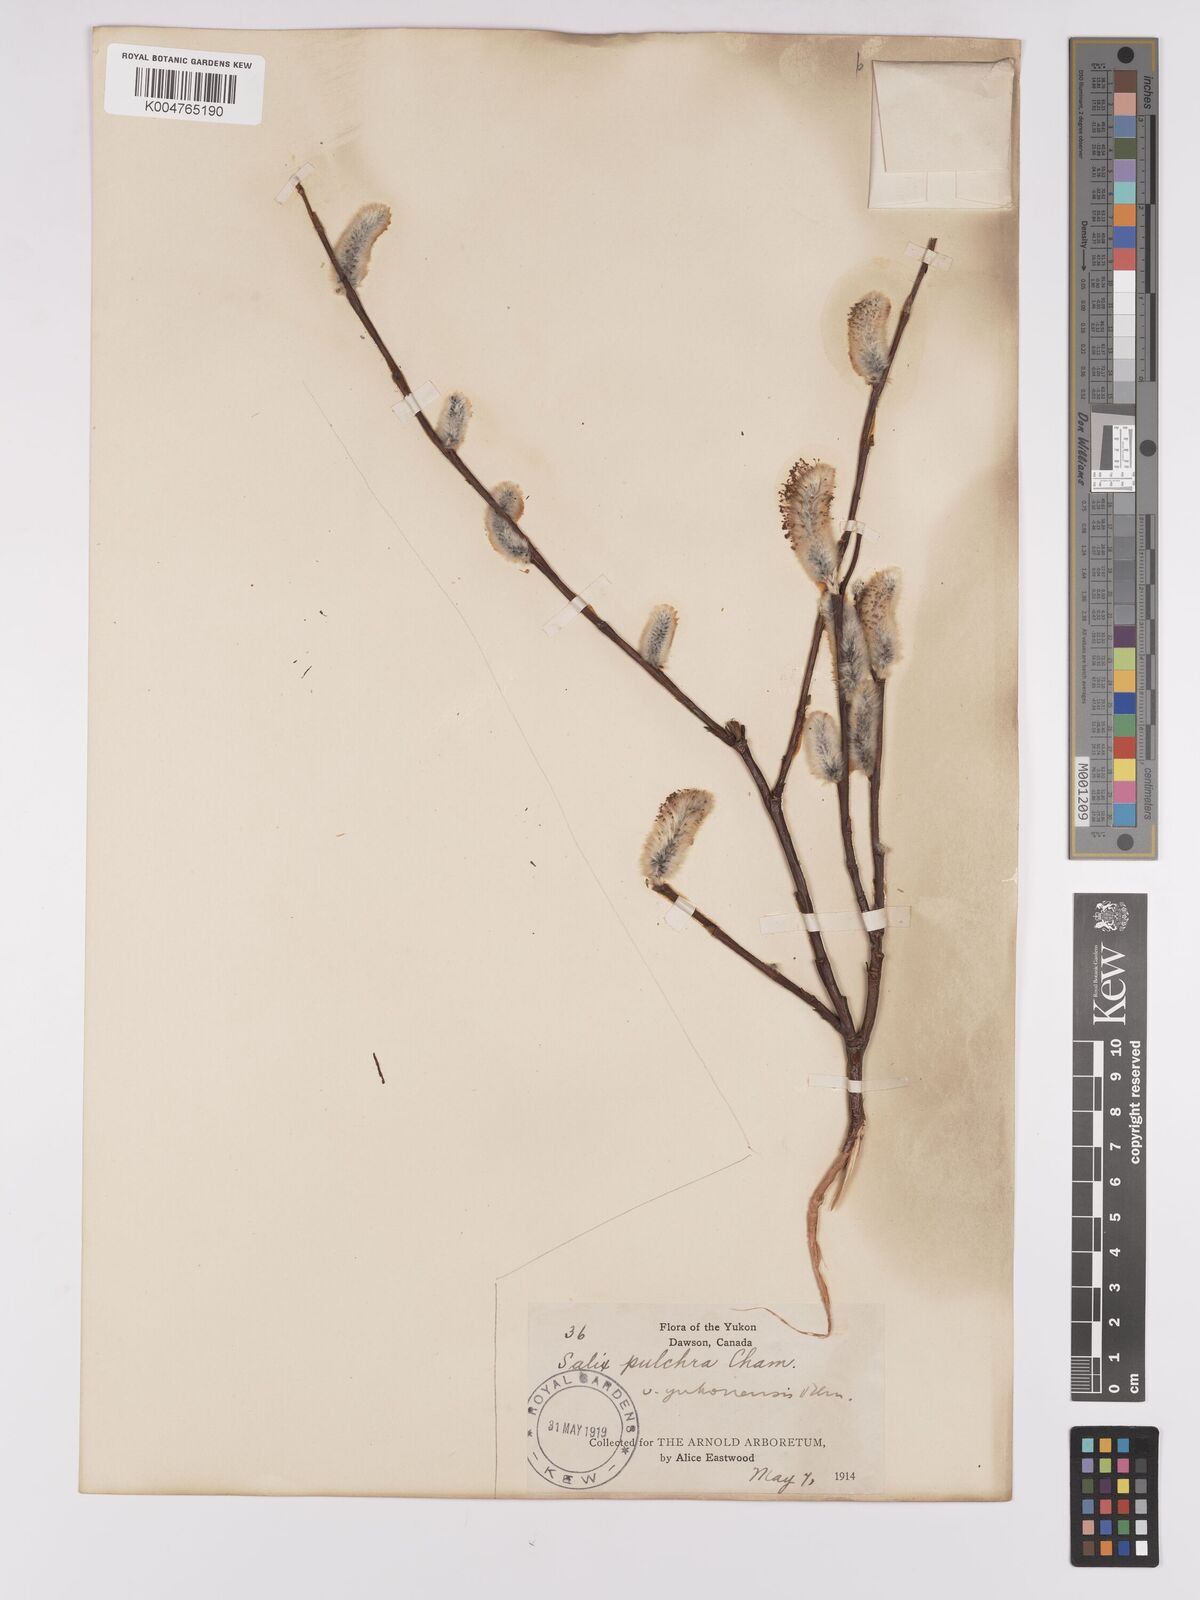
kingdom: Plantae
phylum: Tracheophyta
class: Magnoliopsida
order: Malpighiales
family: Salicaceae
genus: Salix
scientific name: Salix pulchra
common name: Diamond-leaved willow
